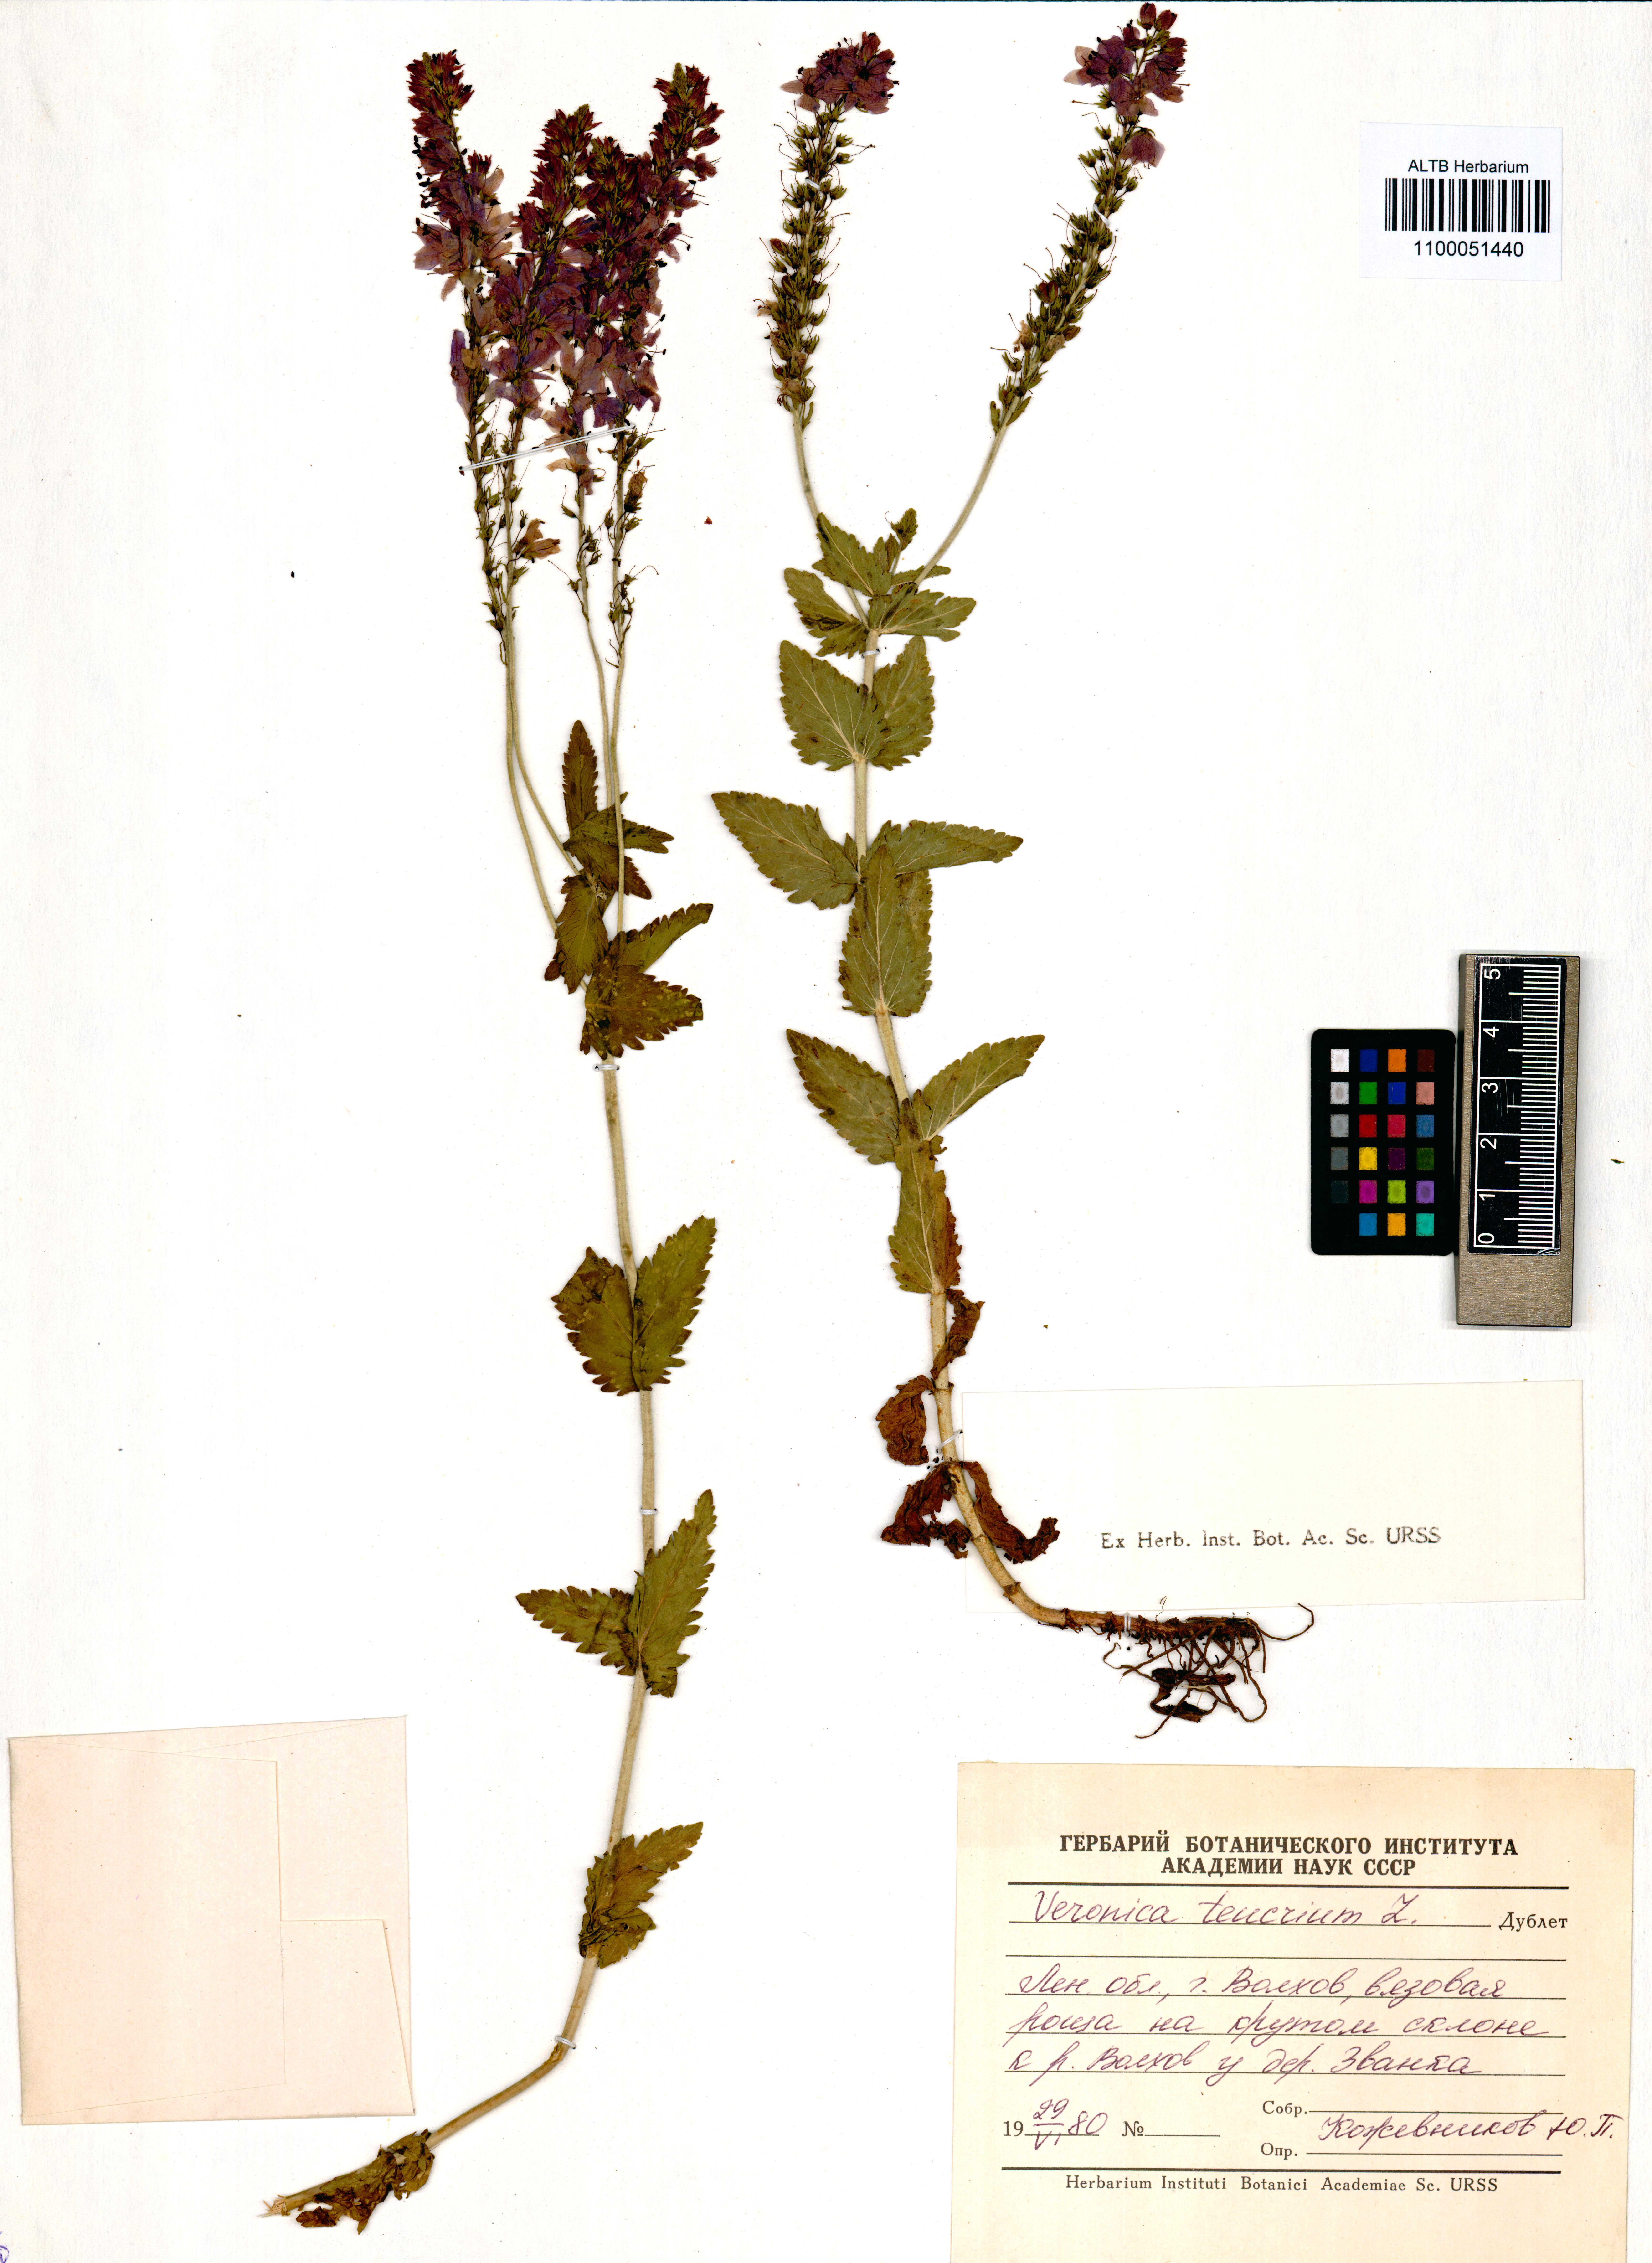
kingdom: Plantae
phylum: Tracheophyta
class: Magnoliopsida
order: Lamiales
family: Plantaginaceae
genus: Veronica
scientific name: Veronica teucrium
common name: Large speedwell
